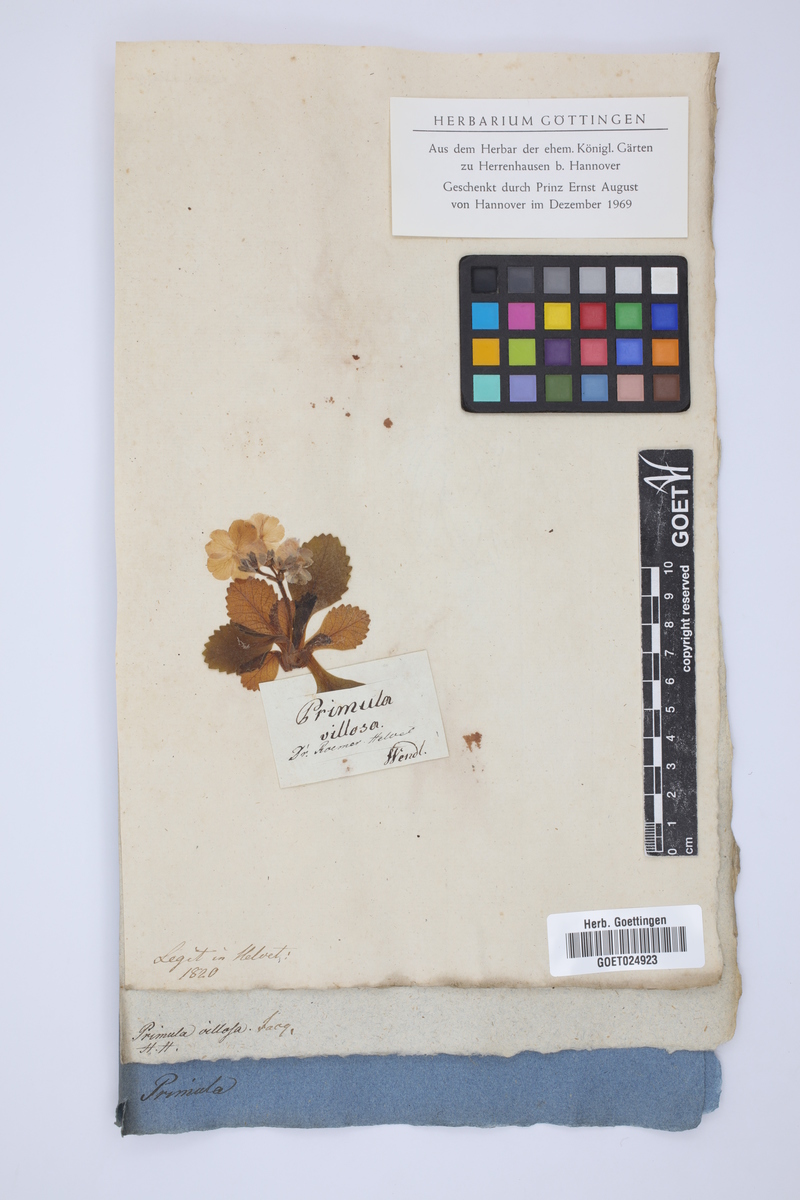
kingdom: Plantae
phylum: Tracheophyta
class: Magnoliopsida
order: Ericales
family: Primulaceae
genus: Primula
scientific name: Primula villosa
